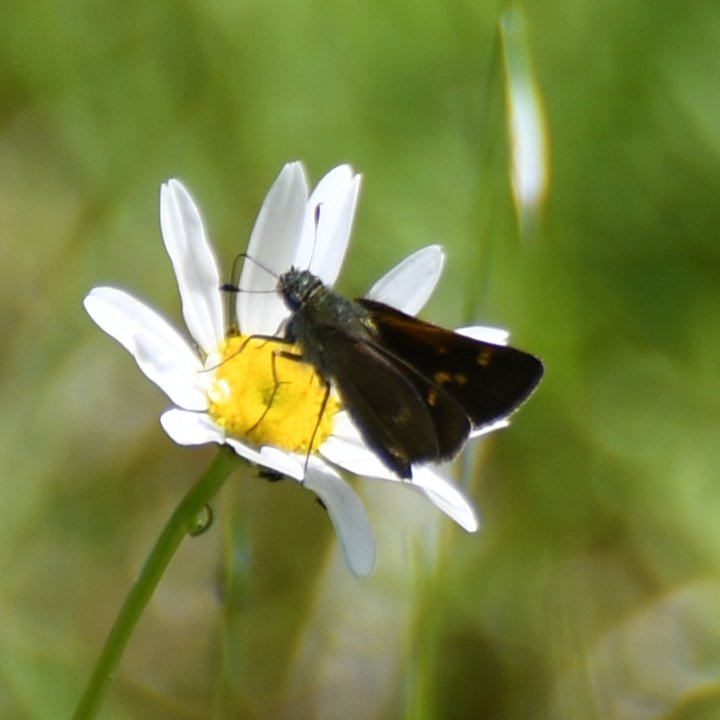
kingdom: Animalia
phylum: Arthropoda
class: Insecta
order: Lepidoptera
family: Hesperiidae
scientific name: Hesperiidae
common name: Skippers
